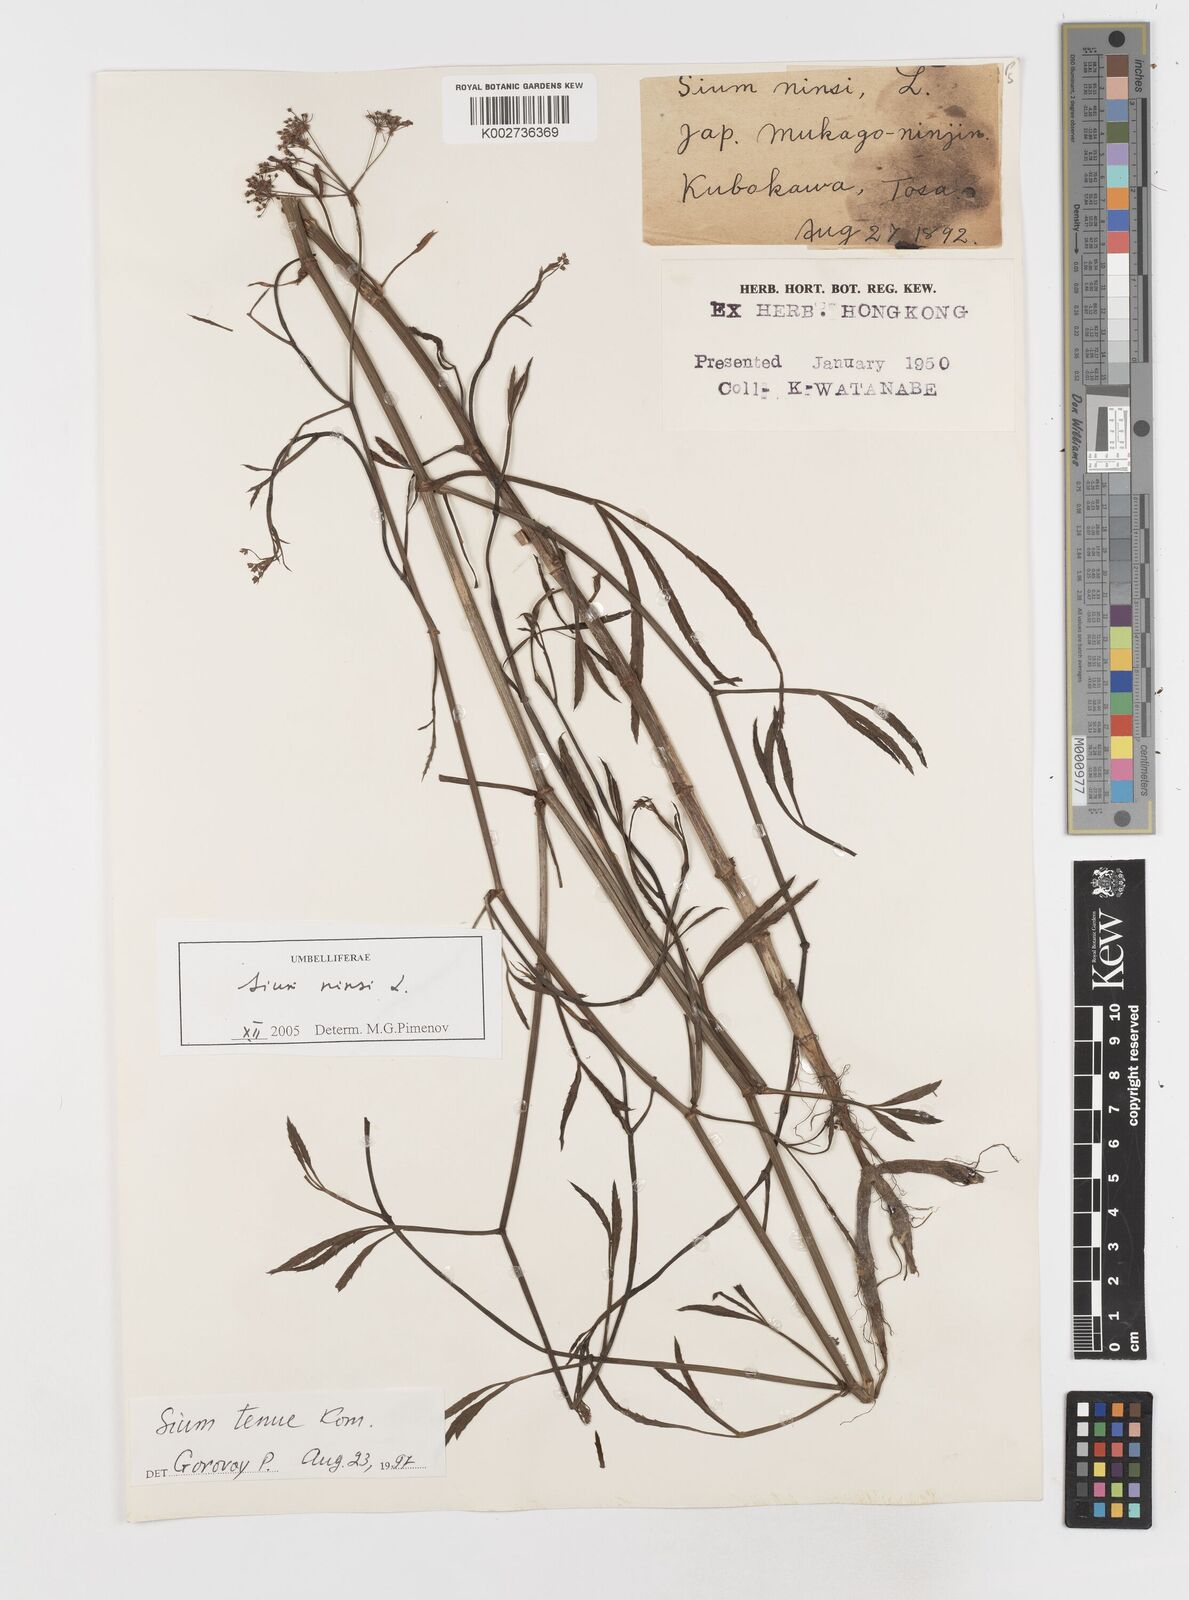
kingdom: Plantae
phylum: Tracheophyta
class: Magnoliopsida
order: Apiales
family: Apiaceae
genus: Sium
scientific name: Sium ninsi
